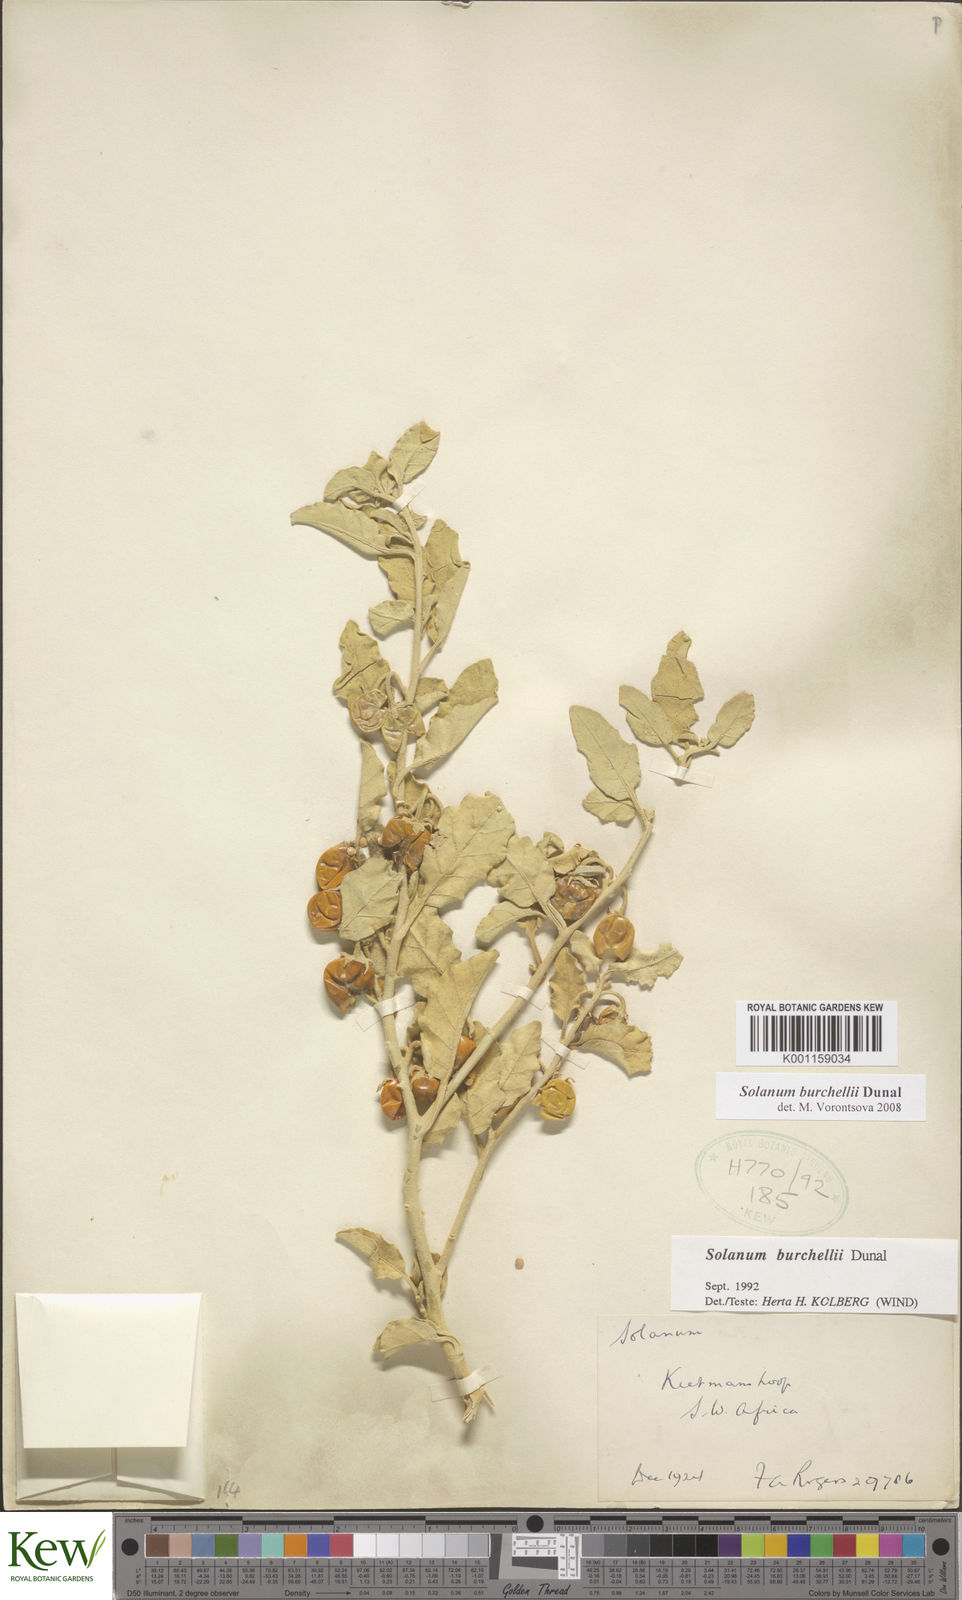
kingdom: Plantae
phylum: Tracheophyta
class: Magnoliopsida
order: Solanales
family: Solanaceae
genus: Solanum
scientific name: Solanum burchellii
